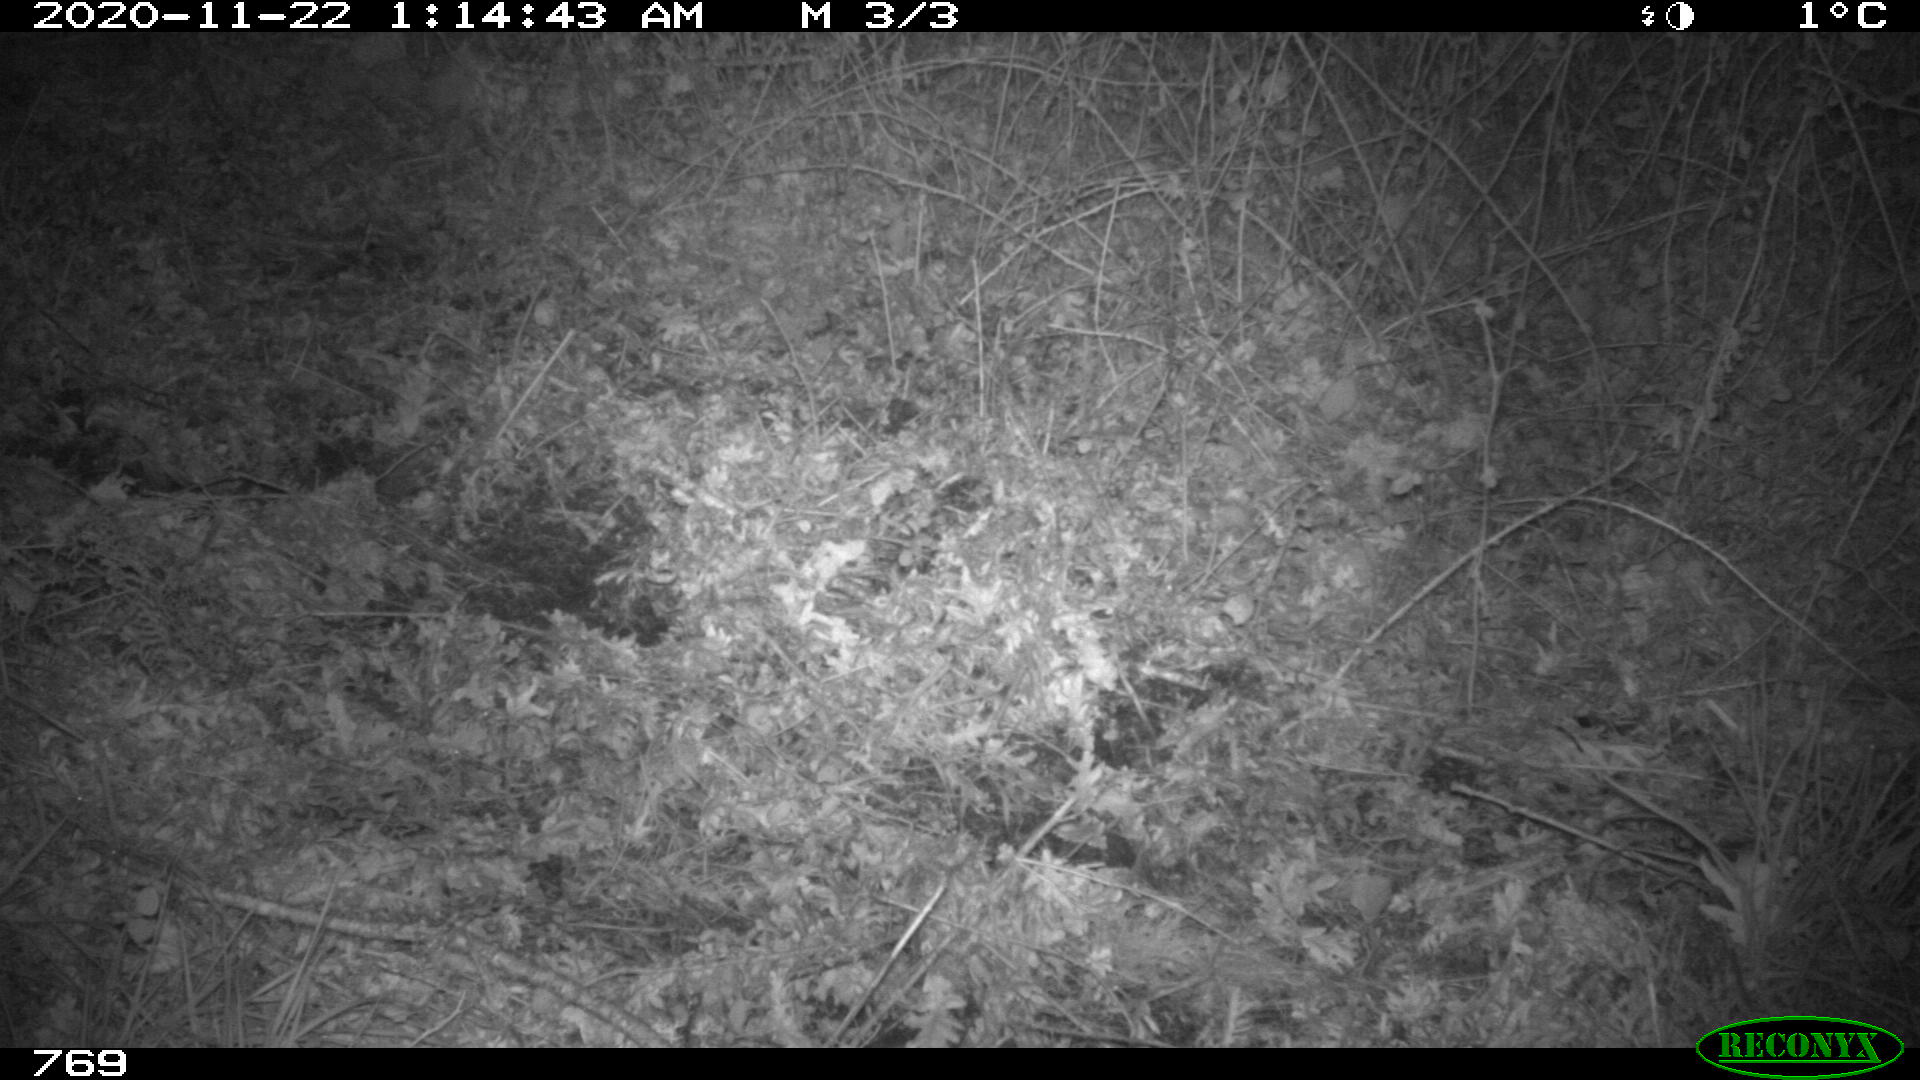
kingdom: Animalia
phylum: Chordata
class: Mammalia
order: Artiodactyla
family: Cervidae
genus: Capreolus
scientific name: Capreolus capreolus
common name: Western roe deer
